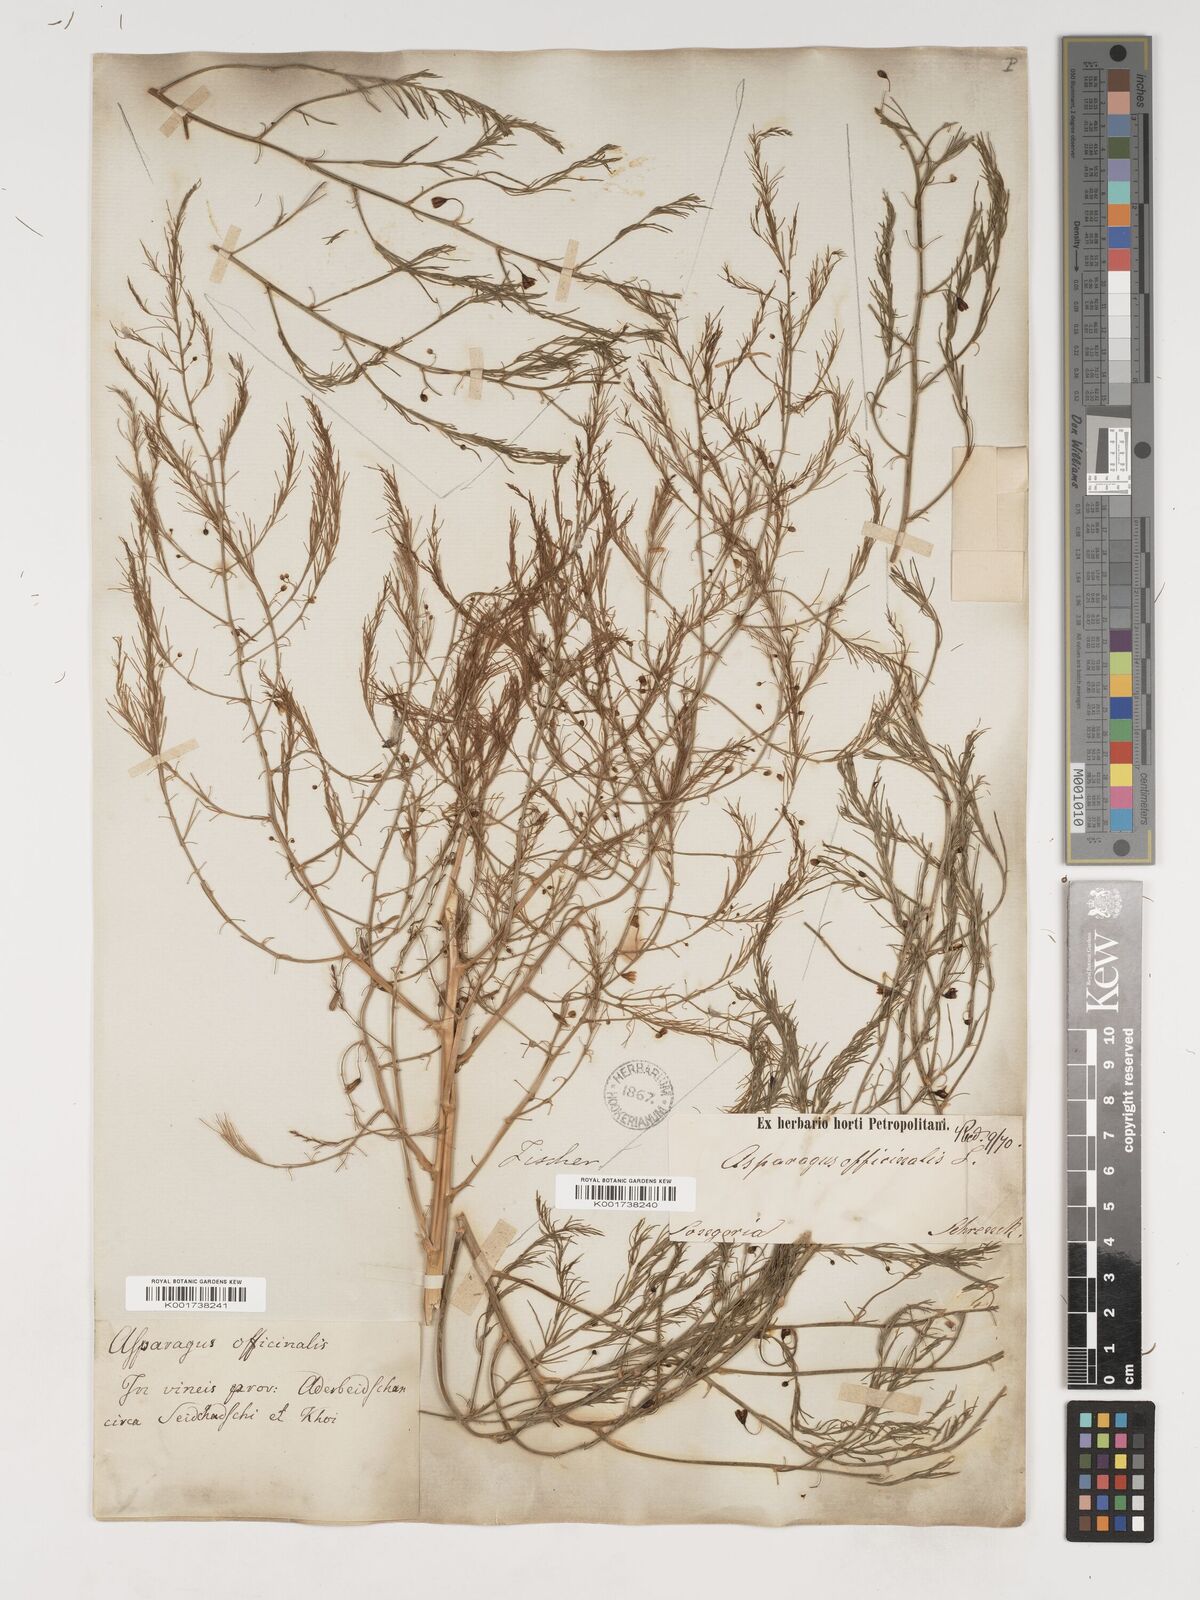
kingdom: Plantae
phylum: Tracheophyta
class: Liliopsida
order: Asparagales
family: Asparagaceae
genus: Asparagus
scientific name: Asparagus officinalis
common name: Garden asparagus
